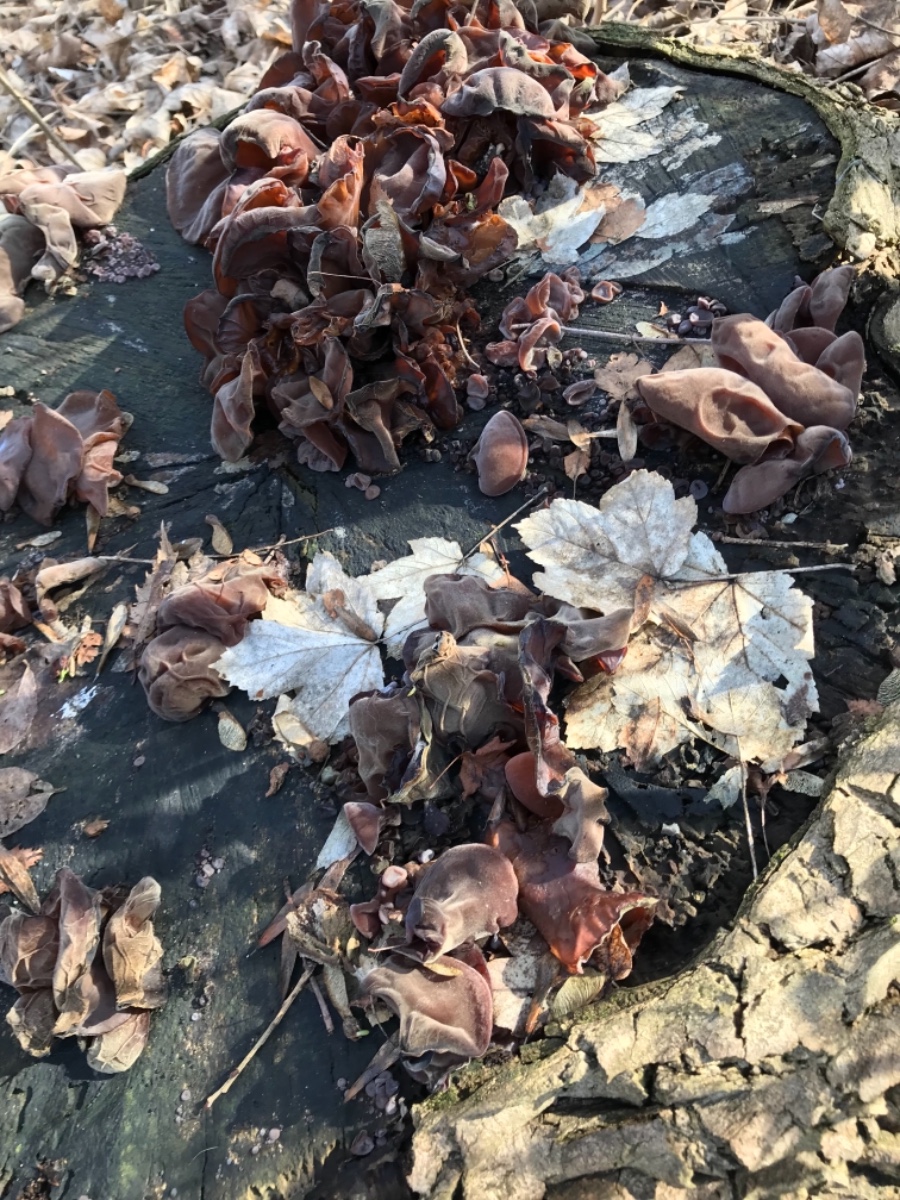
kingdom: Fungi
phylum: Basidiomycota
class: Agaricomycetes
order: Auriculariales
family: Auriculariaceae
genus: Auricularia
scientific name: Auricularia auricula-judae
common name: almindelig judasøre
